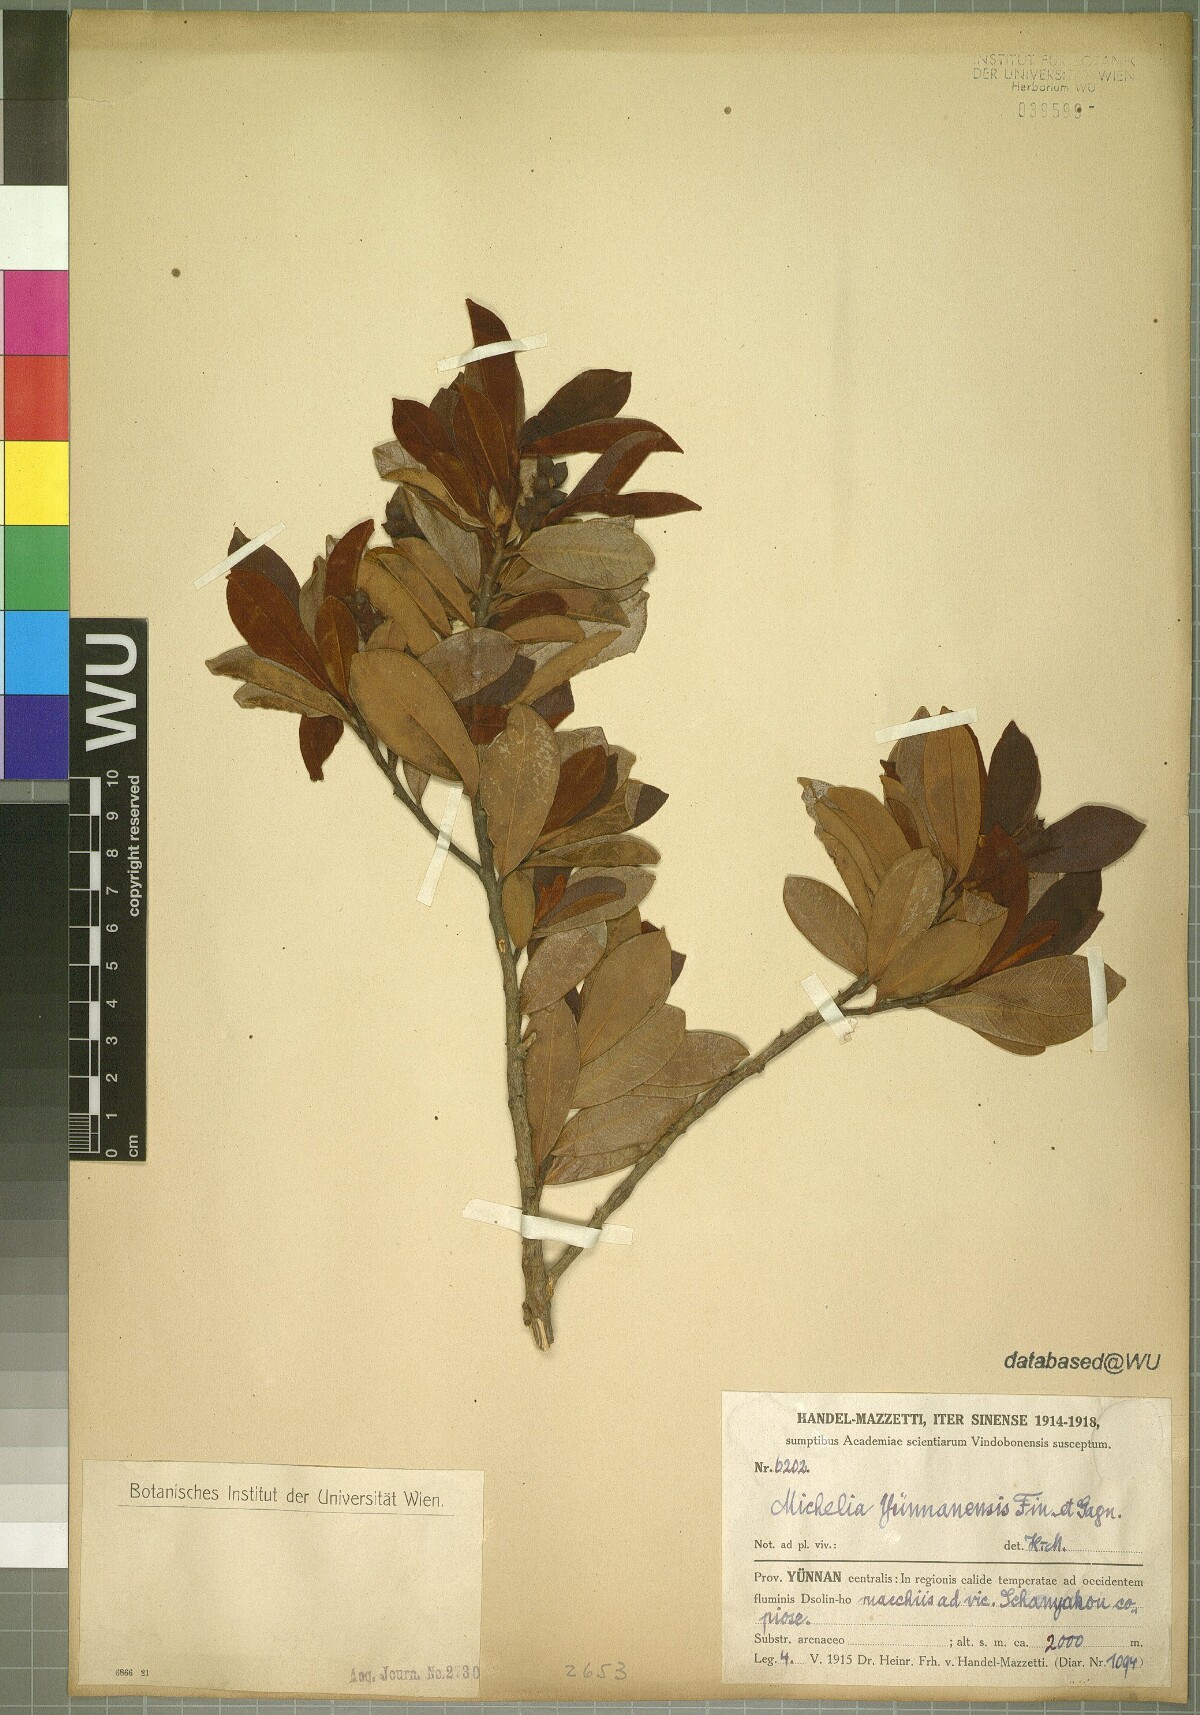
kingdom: Plantae
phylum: Tracheophyta
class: Magnoliopsida
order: Magnoliales
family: Magnoliaceae
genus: Magnolia
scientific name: Magnolia laevifolia
